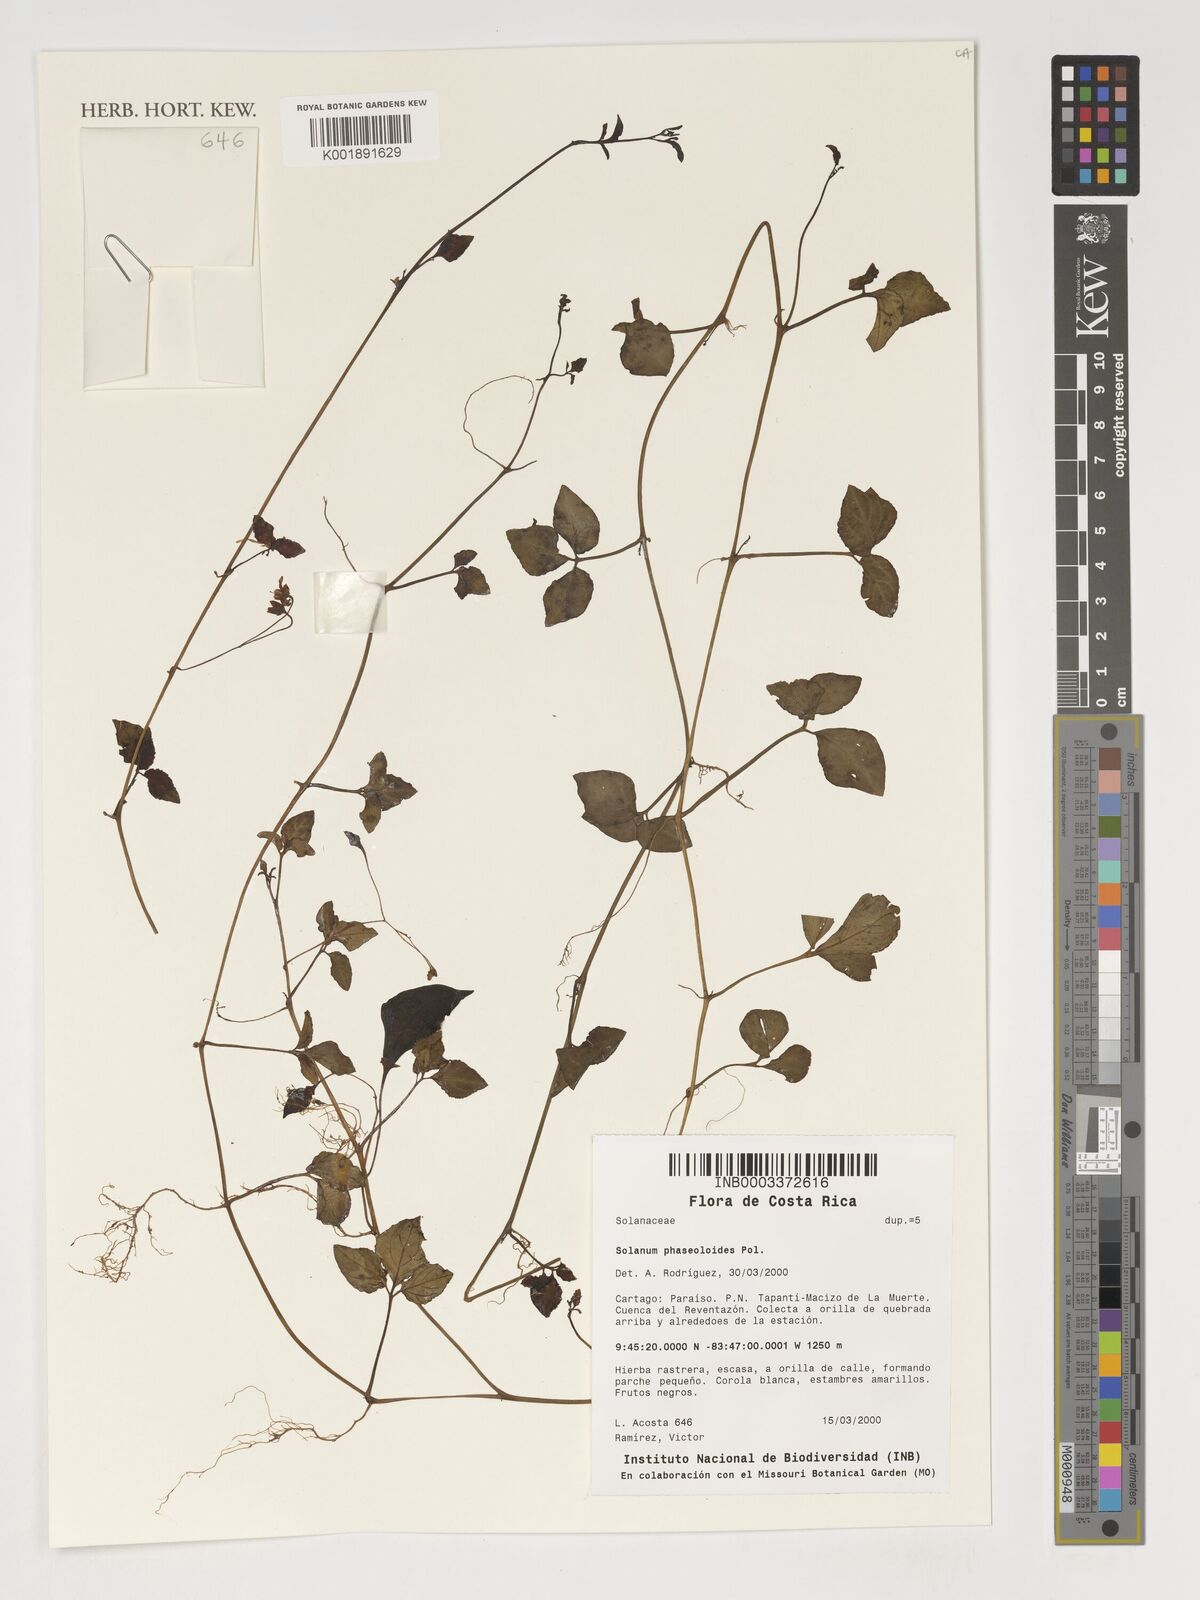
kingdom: Plantae
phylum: Tracheophyta
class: Magnoliopsida
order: Solanales
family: Solanaceae
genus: Solanum
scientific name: Solanum phaseoloides
